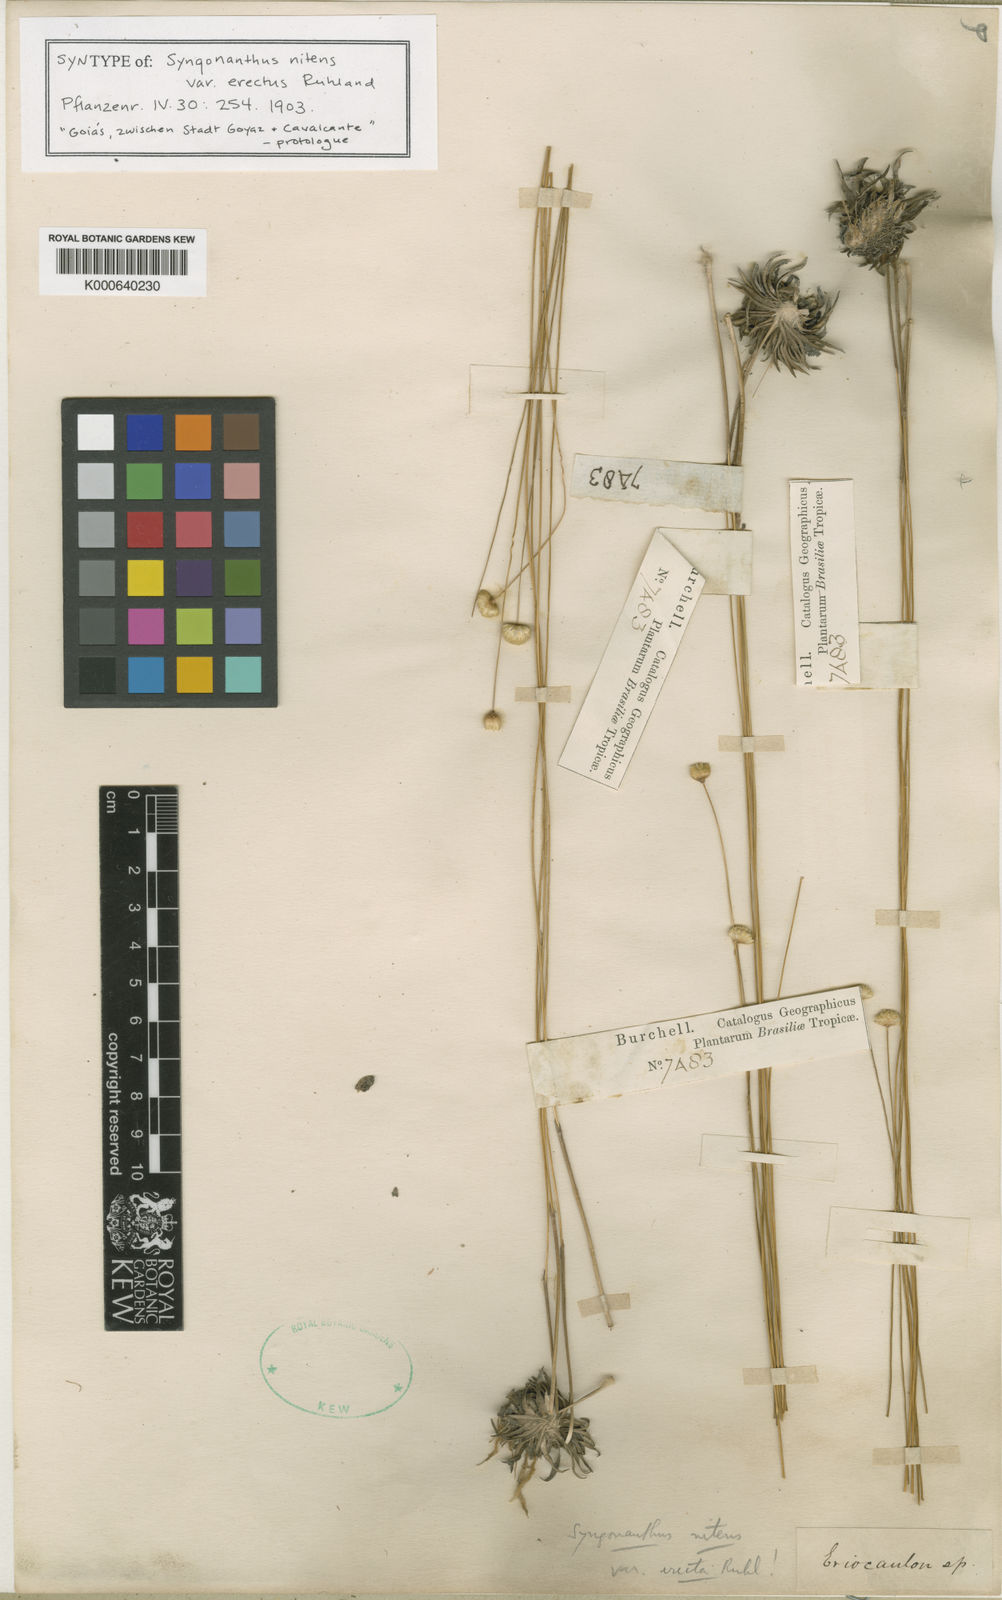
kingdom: Plantae
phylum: Tracheophyta
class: Liliopsida
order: Poales
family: Eriocaulaceae
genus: Syngonanthus
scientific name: Syngonanthus nitens
